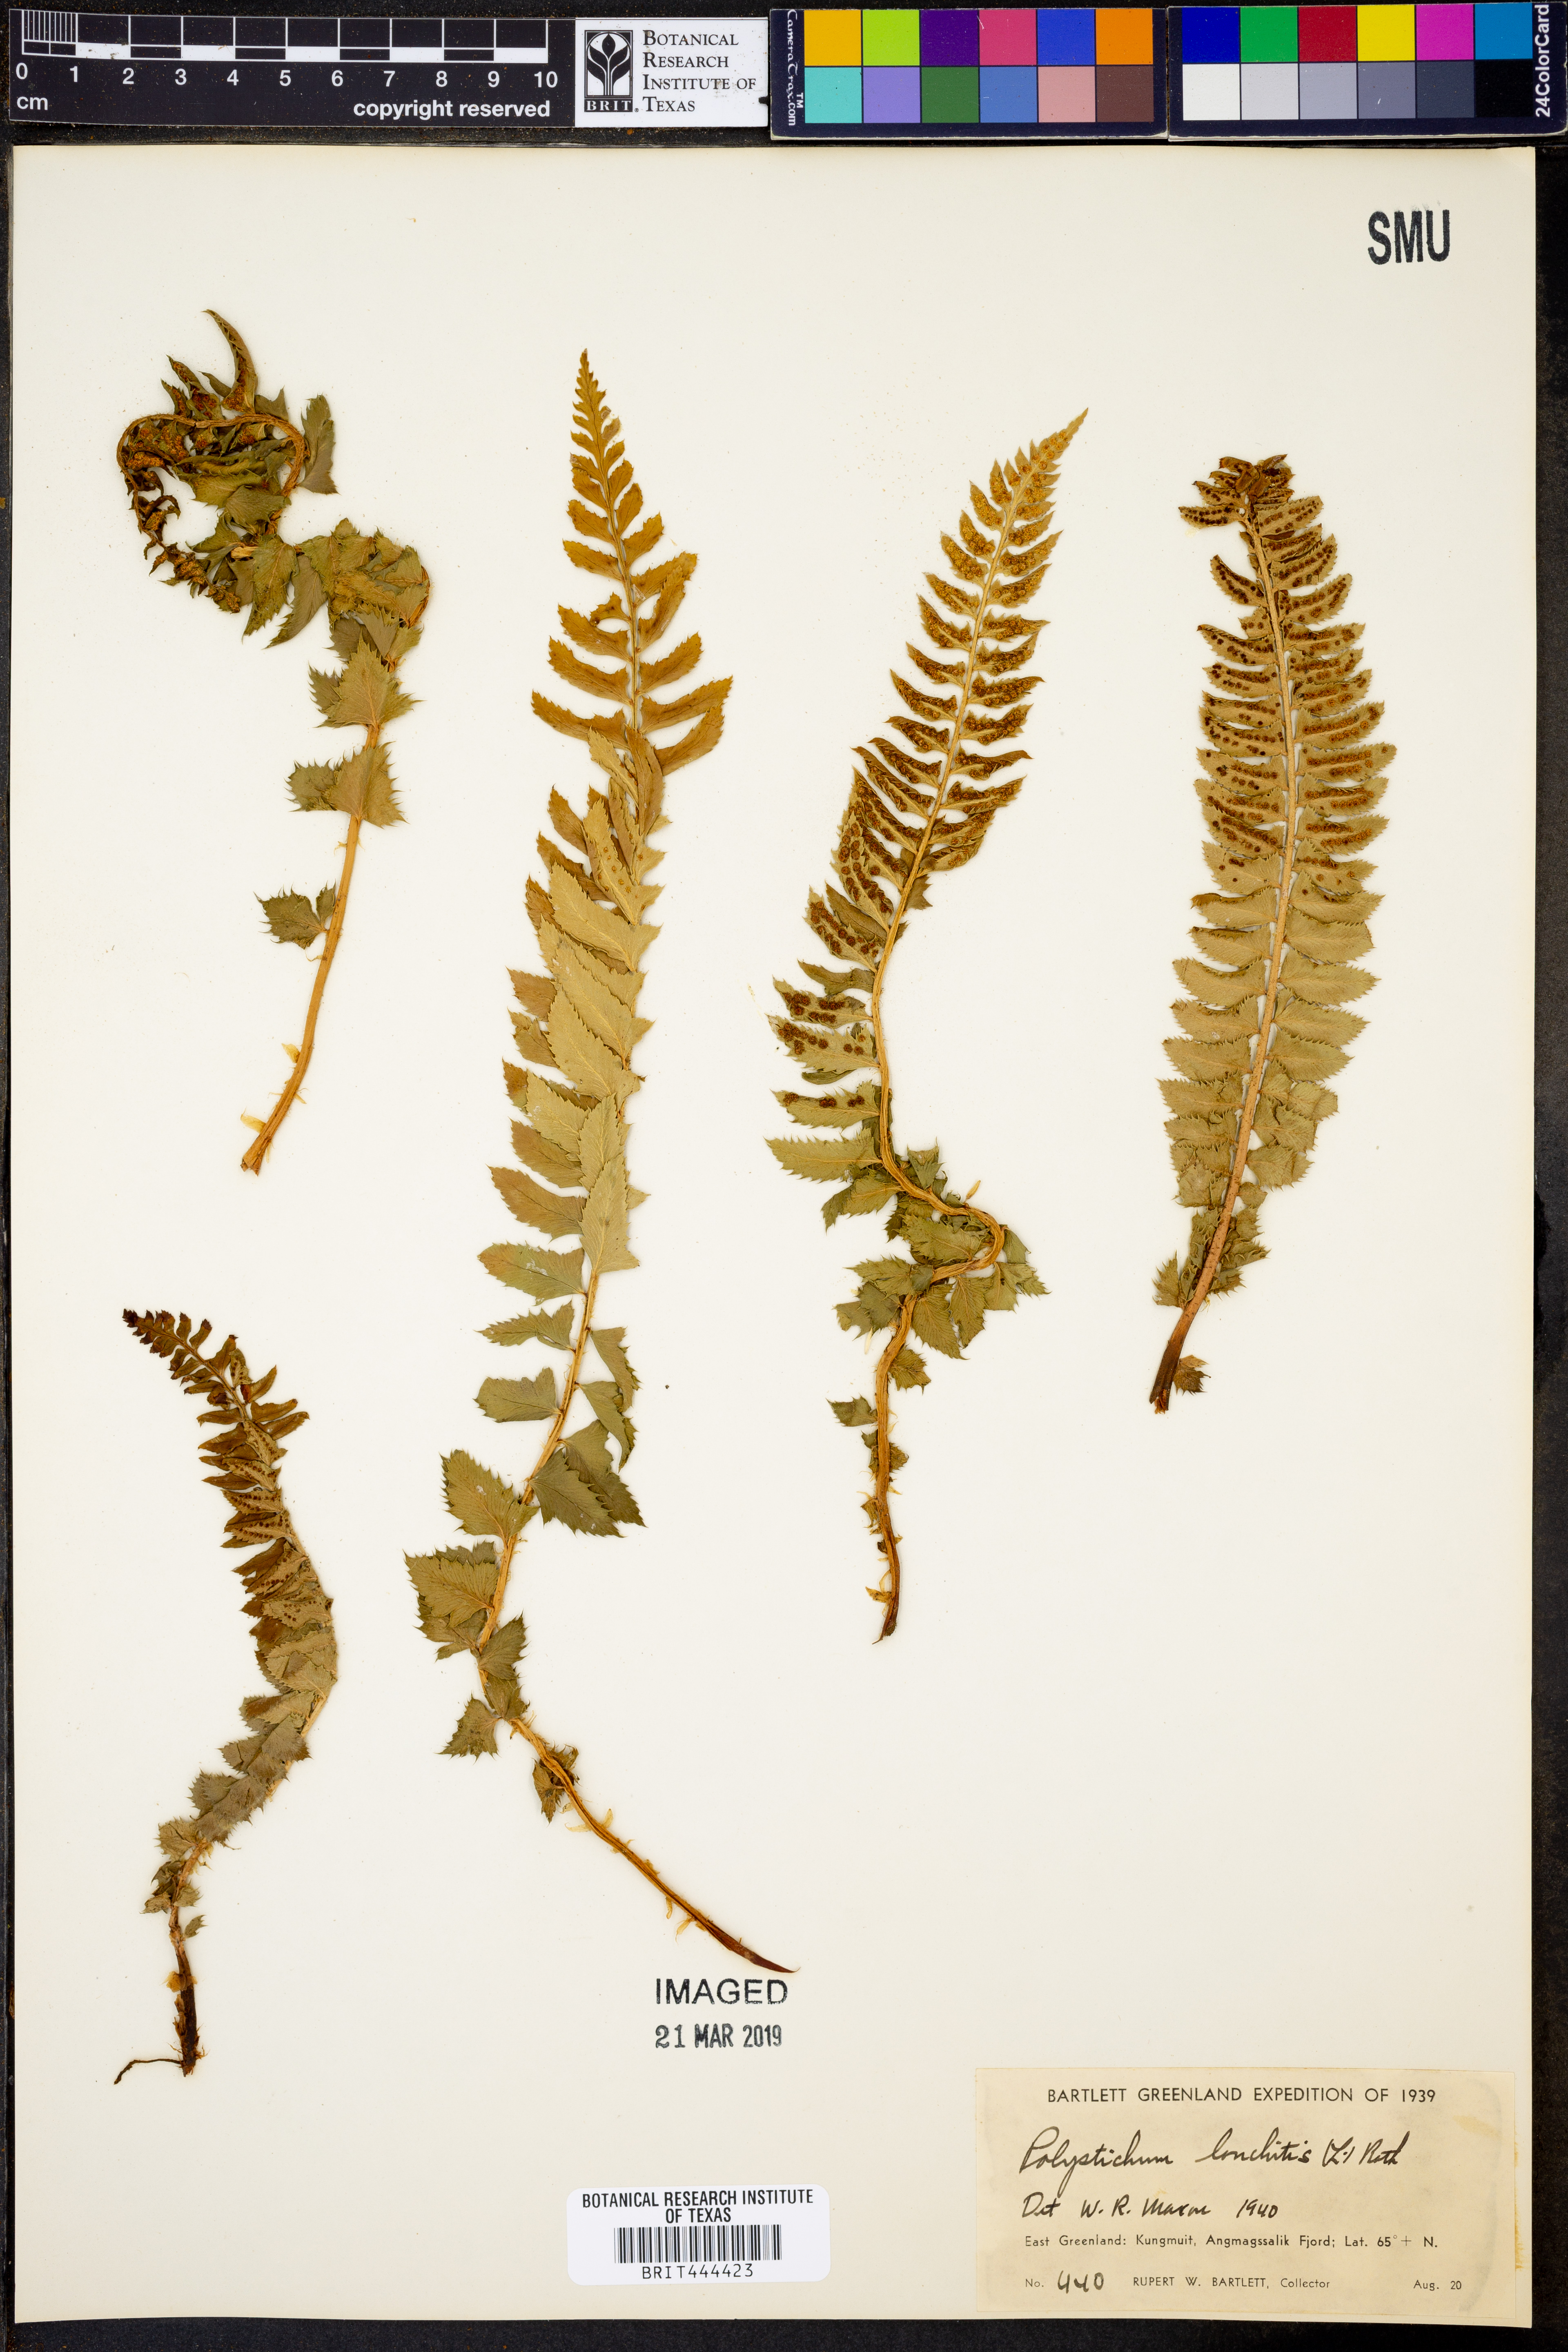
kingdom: Plantae
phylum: Tracheophyta
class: Polypodiopsida
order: Polypodiales
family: Dryopteridaceae
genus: Polystichum
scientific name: Polystichum lonchitis
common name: Holly fern
